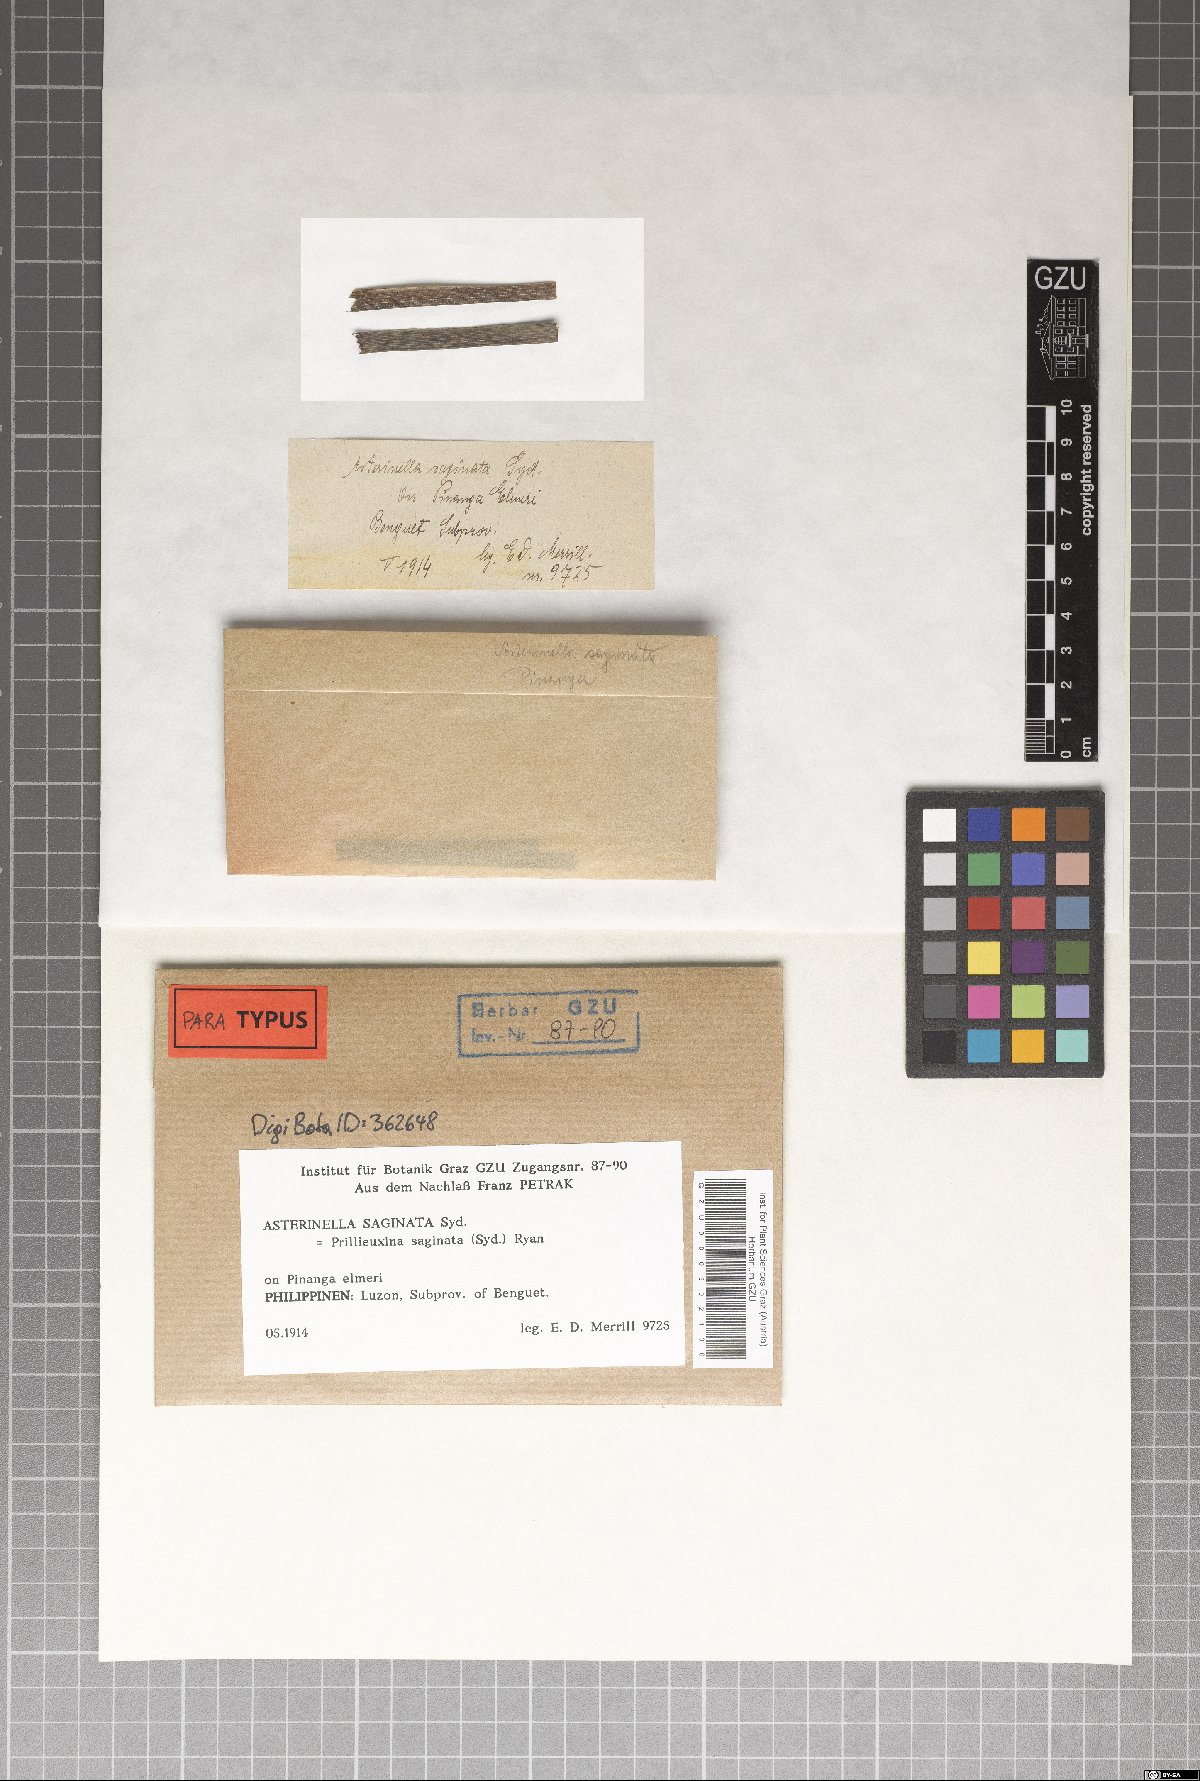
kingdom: Fungi
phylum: Ascomycota
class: Dothideomycetes
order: Asterinales
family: Asterinaceae
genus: Prillieuxina
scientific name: Prillieuxina saginata
